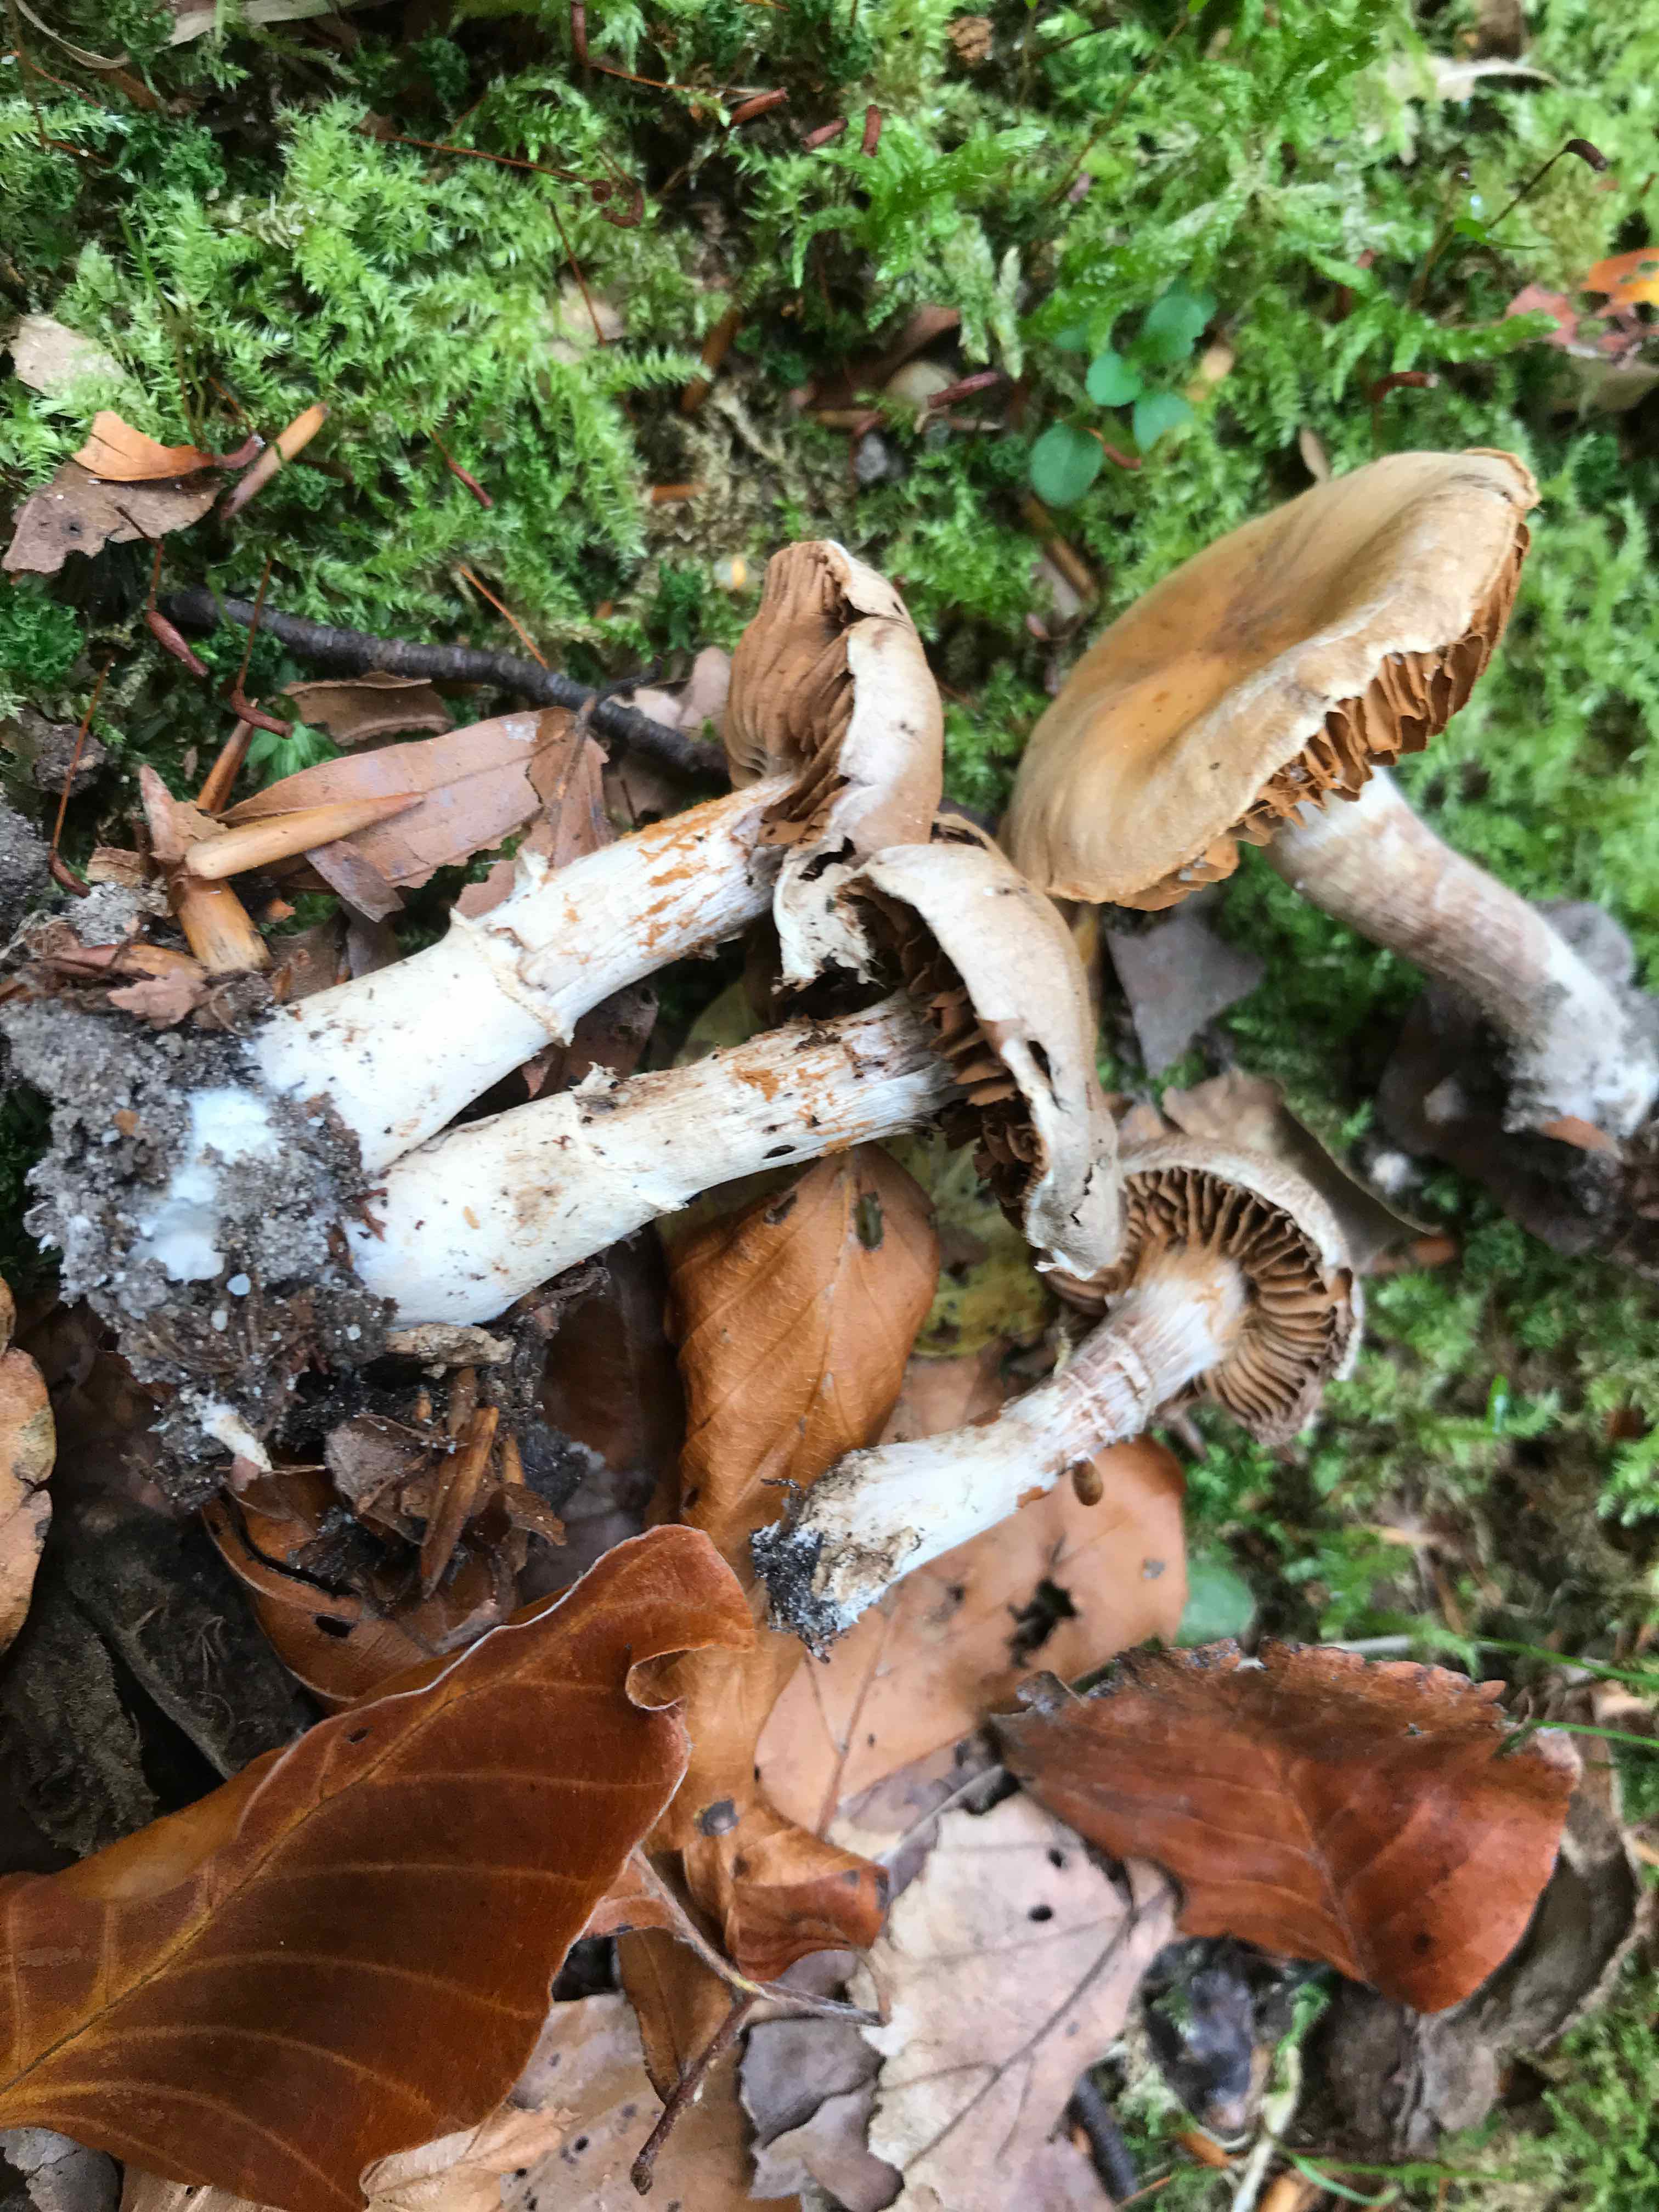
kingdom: Fungi
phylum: Basidiomycota
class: Agaricomycetes
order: Agaricales
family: Cortinariaceae
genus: Cortinarius
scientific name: Cortinarius torvus
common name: champignonagtig slørhat
